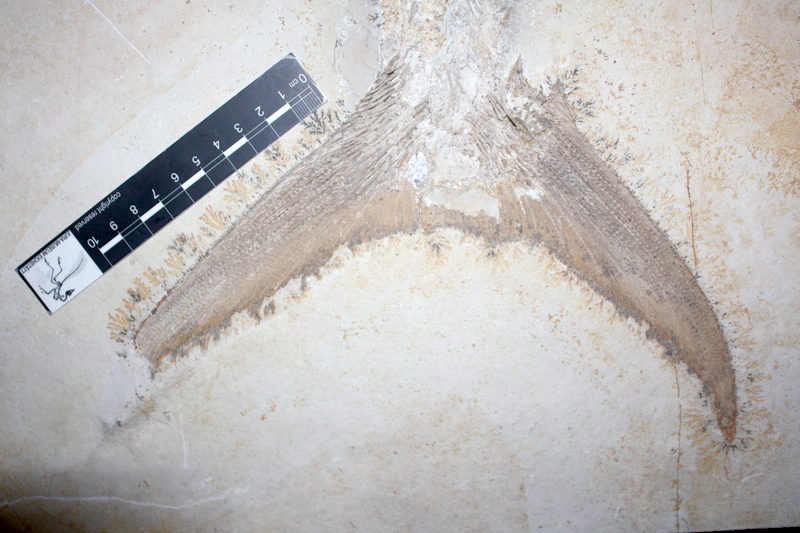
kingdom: Animalia
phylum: Chordata
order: Amiiformes
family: Caturidae
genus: Caturus
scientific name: Caturus
